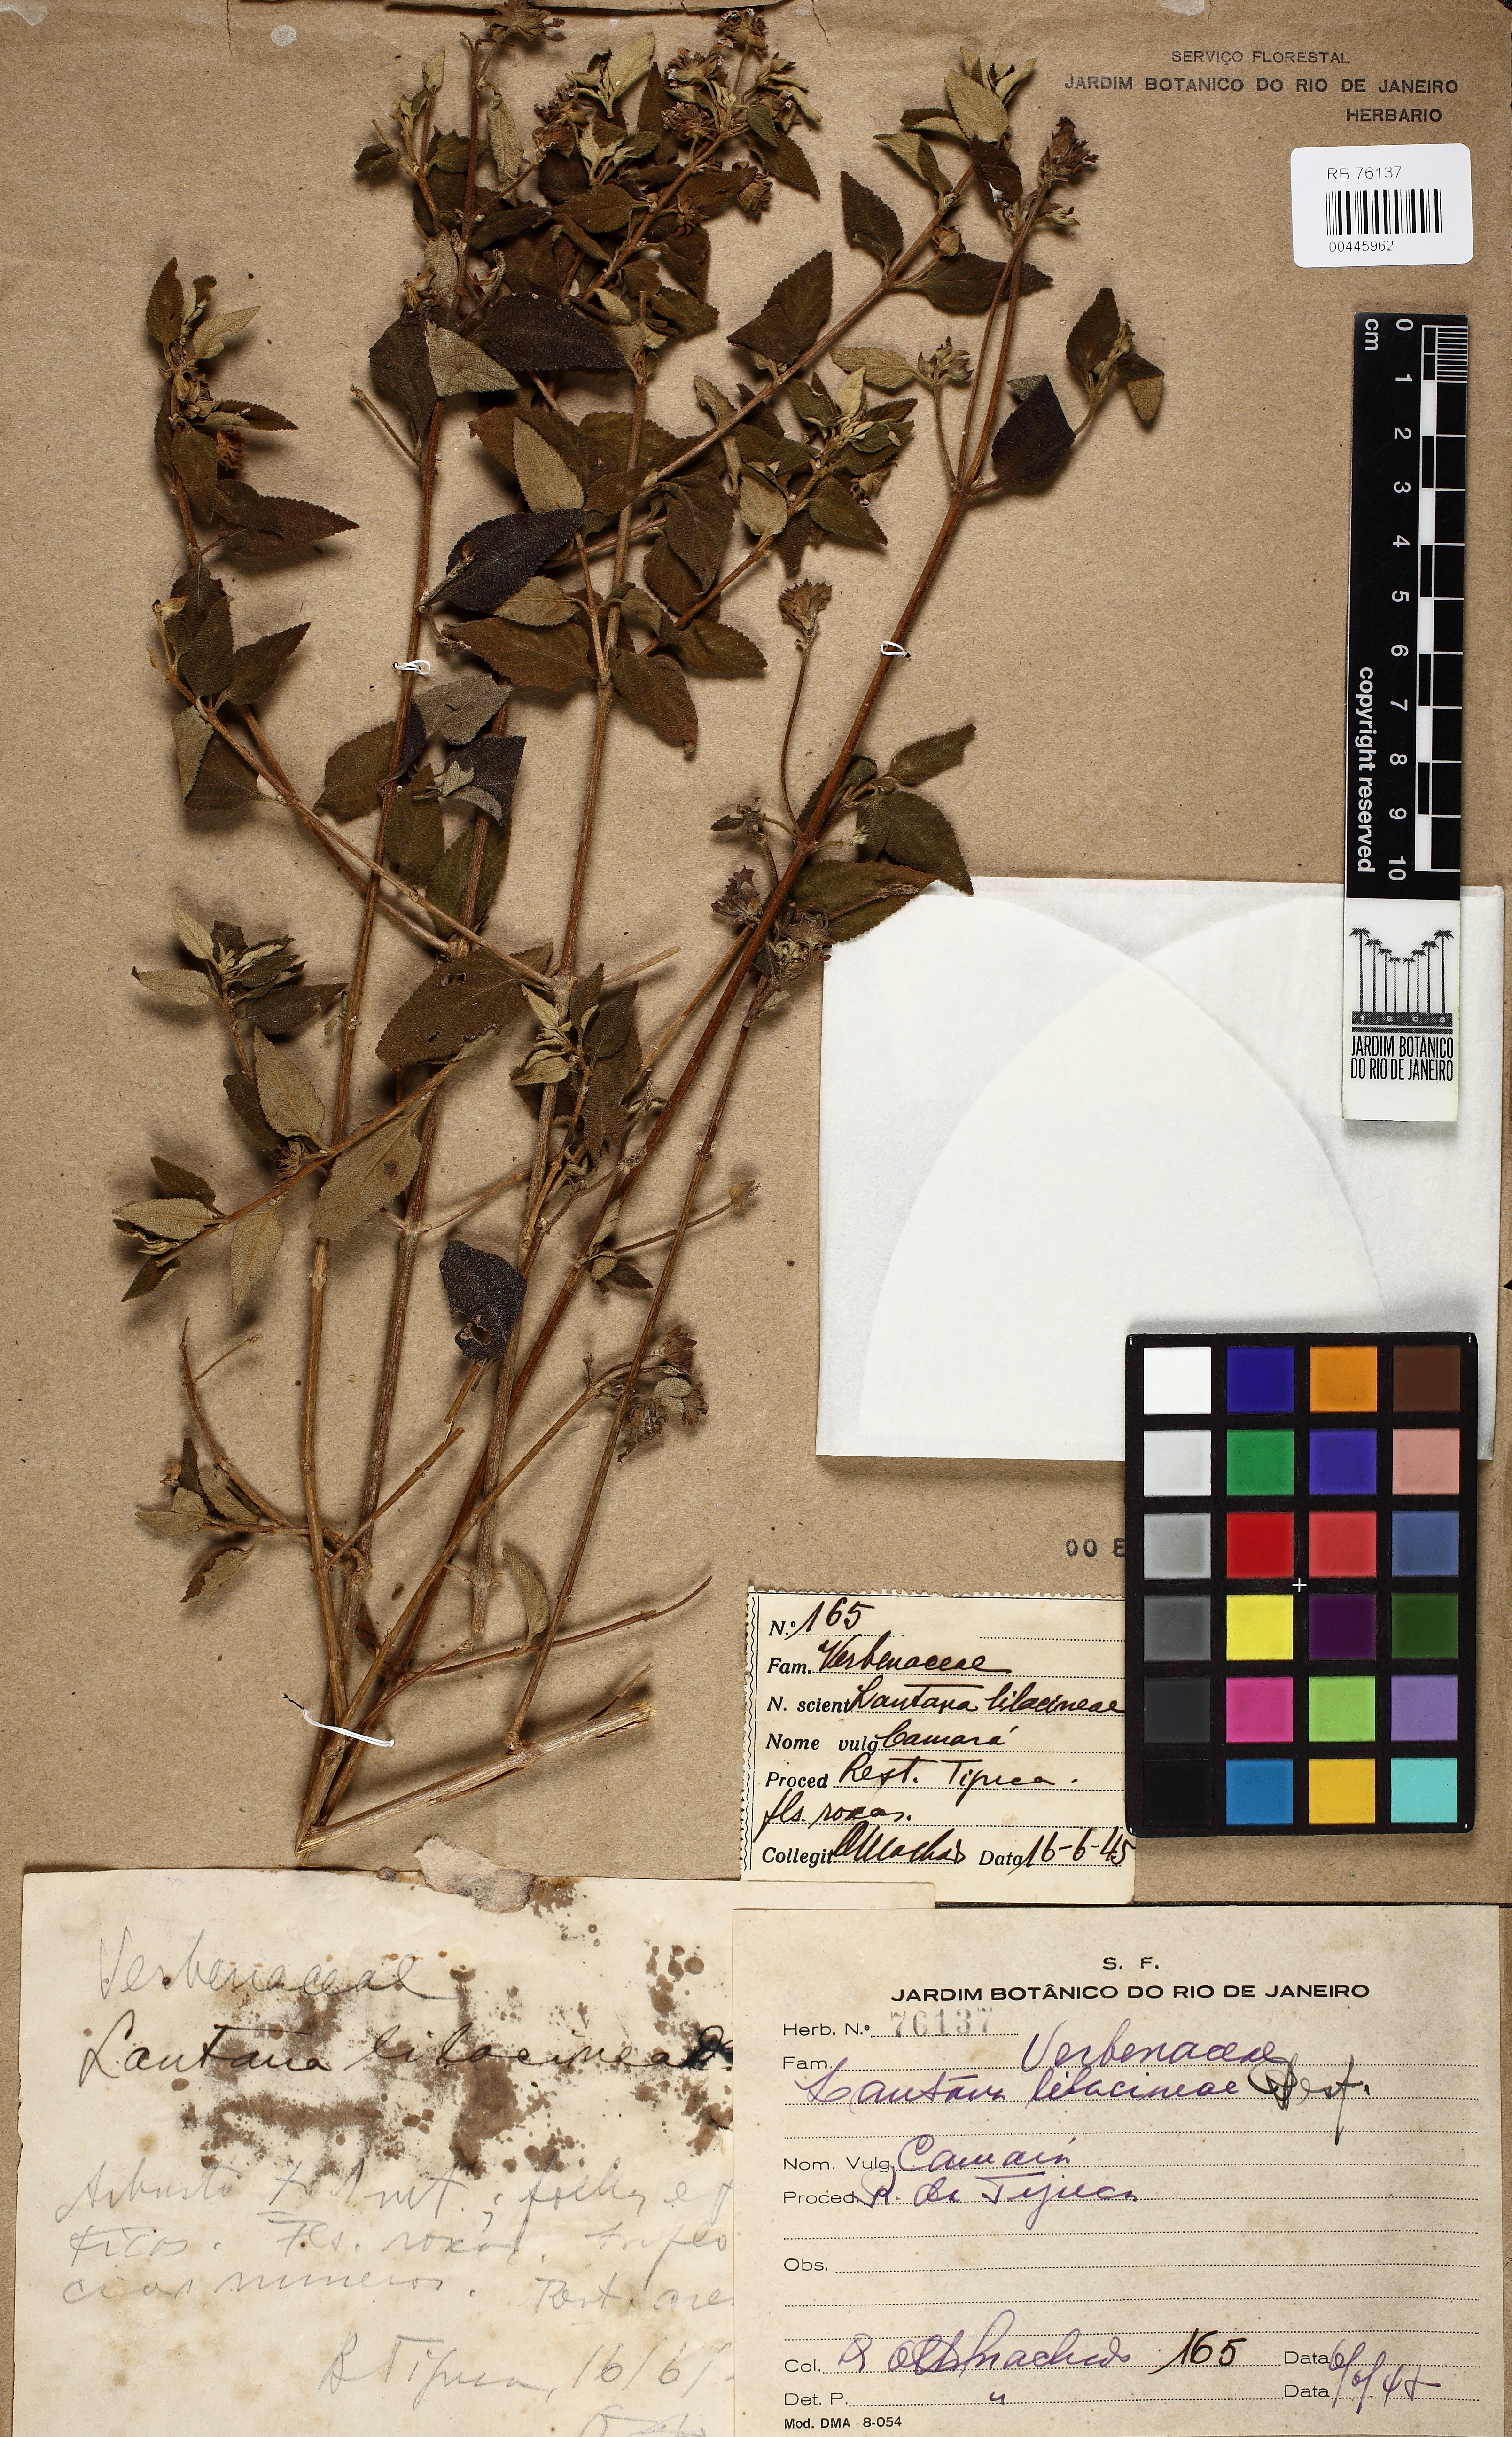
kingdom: Plantae
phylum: Tracheophyta
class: Magnoliopsida
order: Lamiales
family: Verbenaceae
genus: Lantana
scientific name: Lantana fucata
